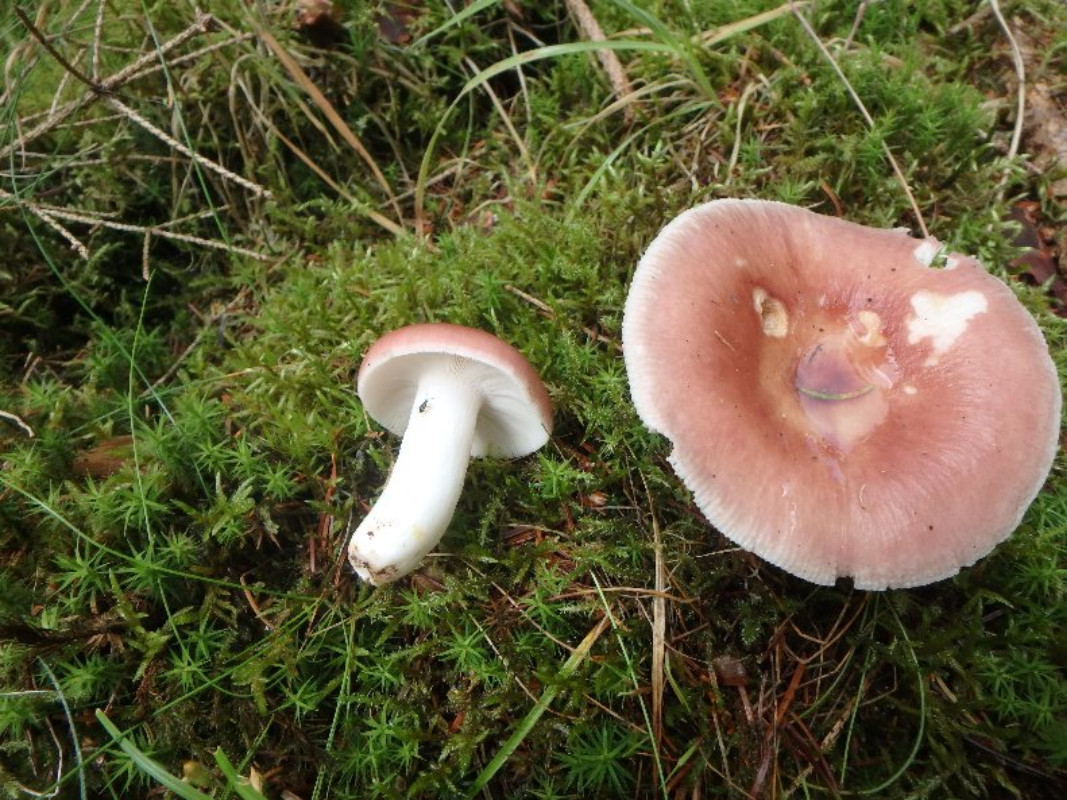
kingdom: Fungi
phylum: Basidiomycota
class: Agaricomycetes
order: Russulales
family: Russulaceae
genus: Russula
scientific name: Russula vesca
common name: spiselig skørhat
